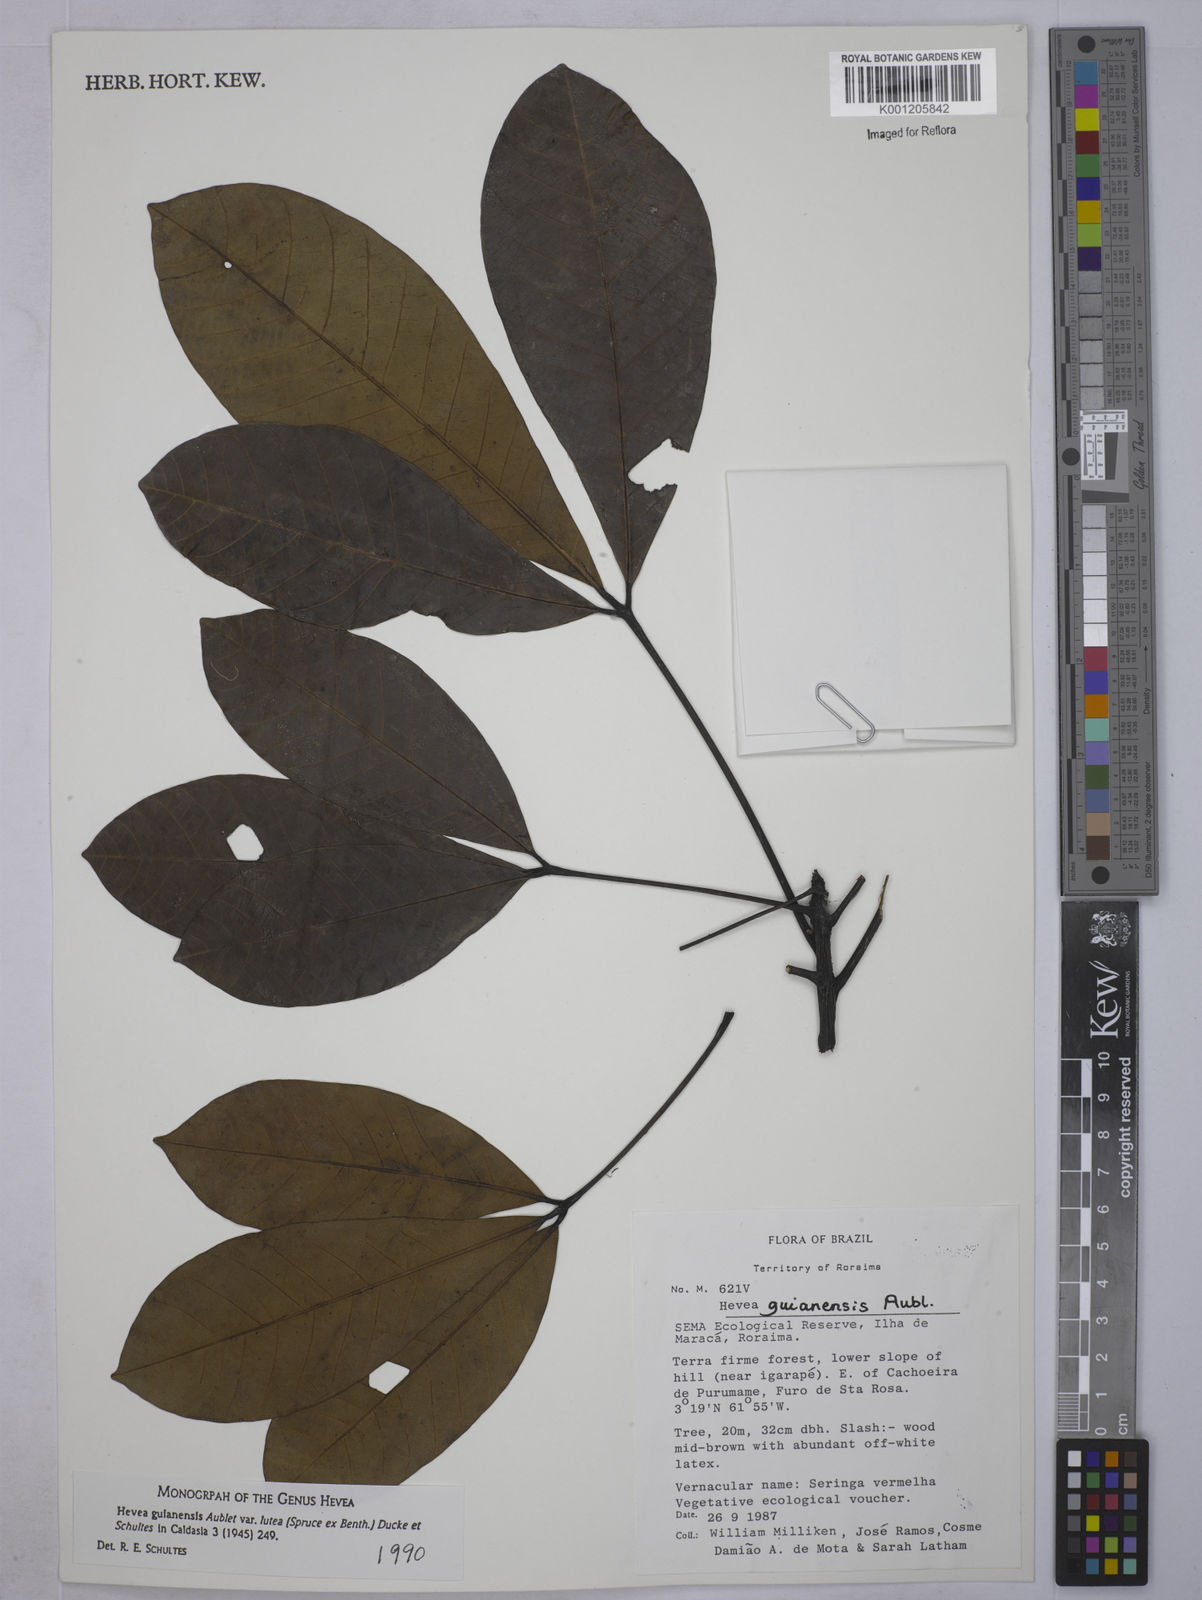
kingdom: Plantae
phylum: Tracheophyta
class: Magnoliopsida
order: Malpighiales
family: Euphorbiaceae
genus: Hevea
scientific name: Hevea guianensis
